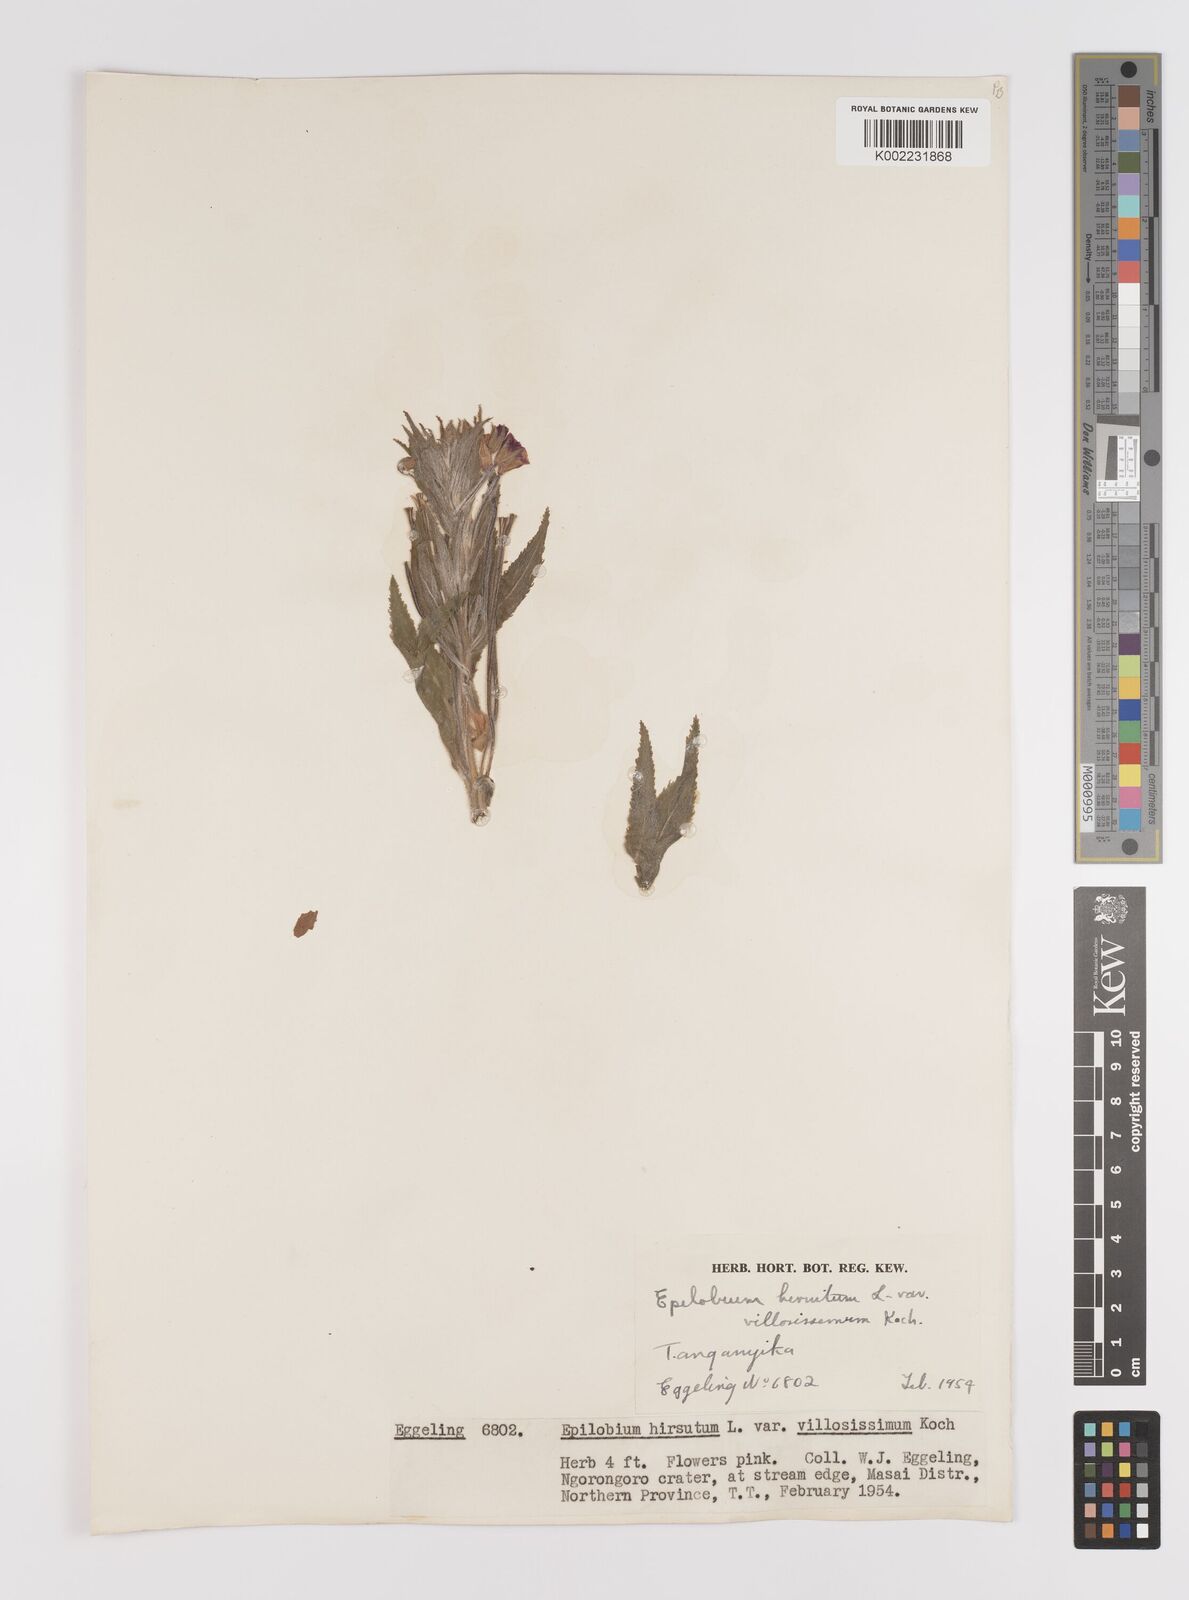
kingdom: Plantae
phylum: Tracheophyta
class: Magnoliopsida
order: Myrtales
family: Onagraceae
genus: Epilobium
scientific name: Epilobium hirsutum
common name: Great willowherb
